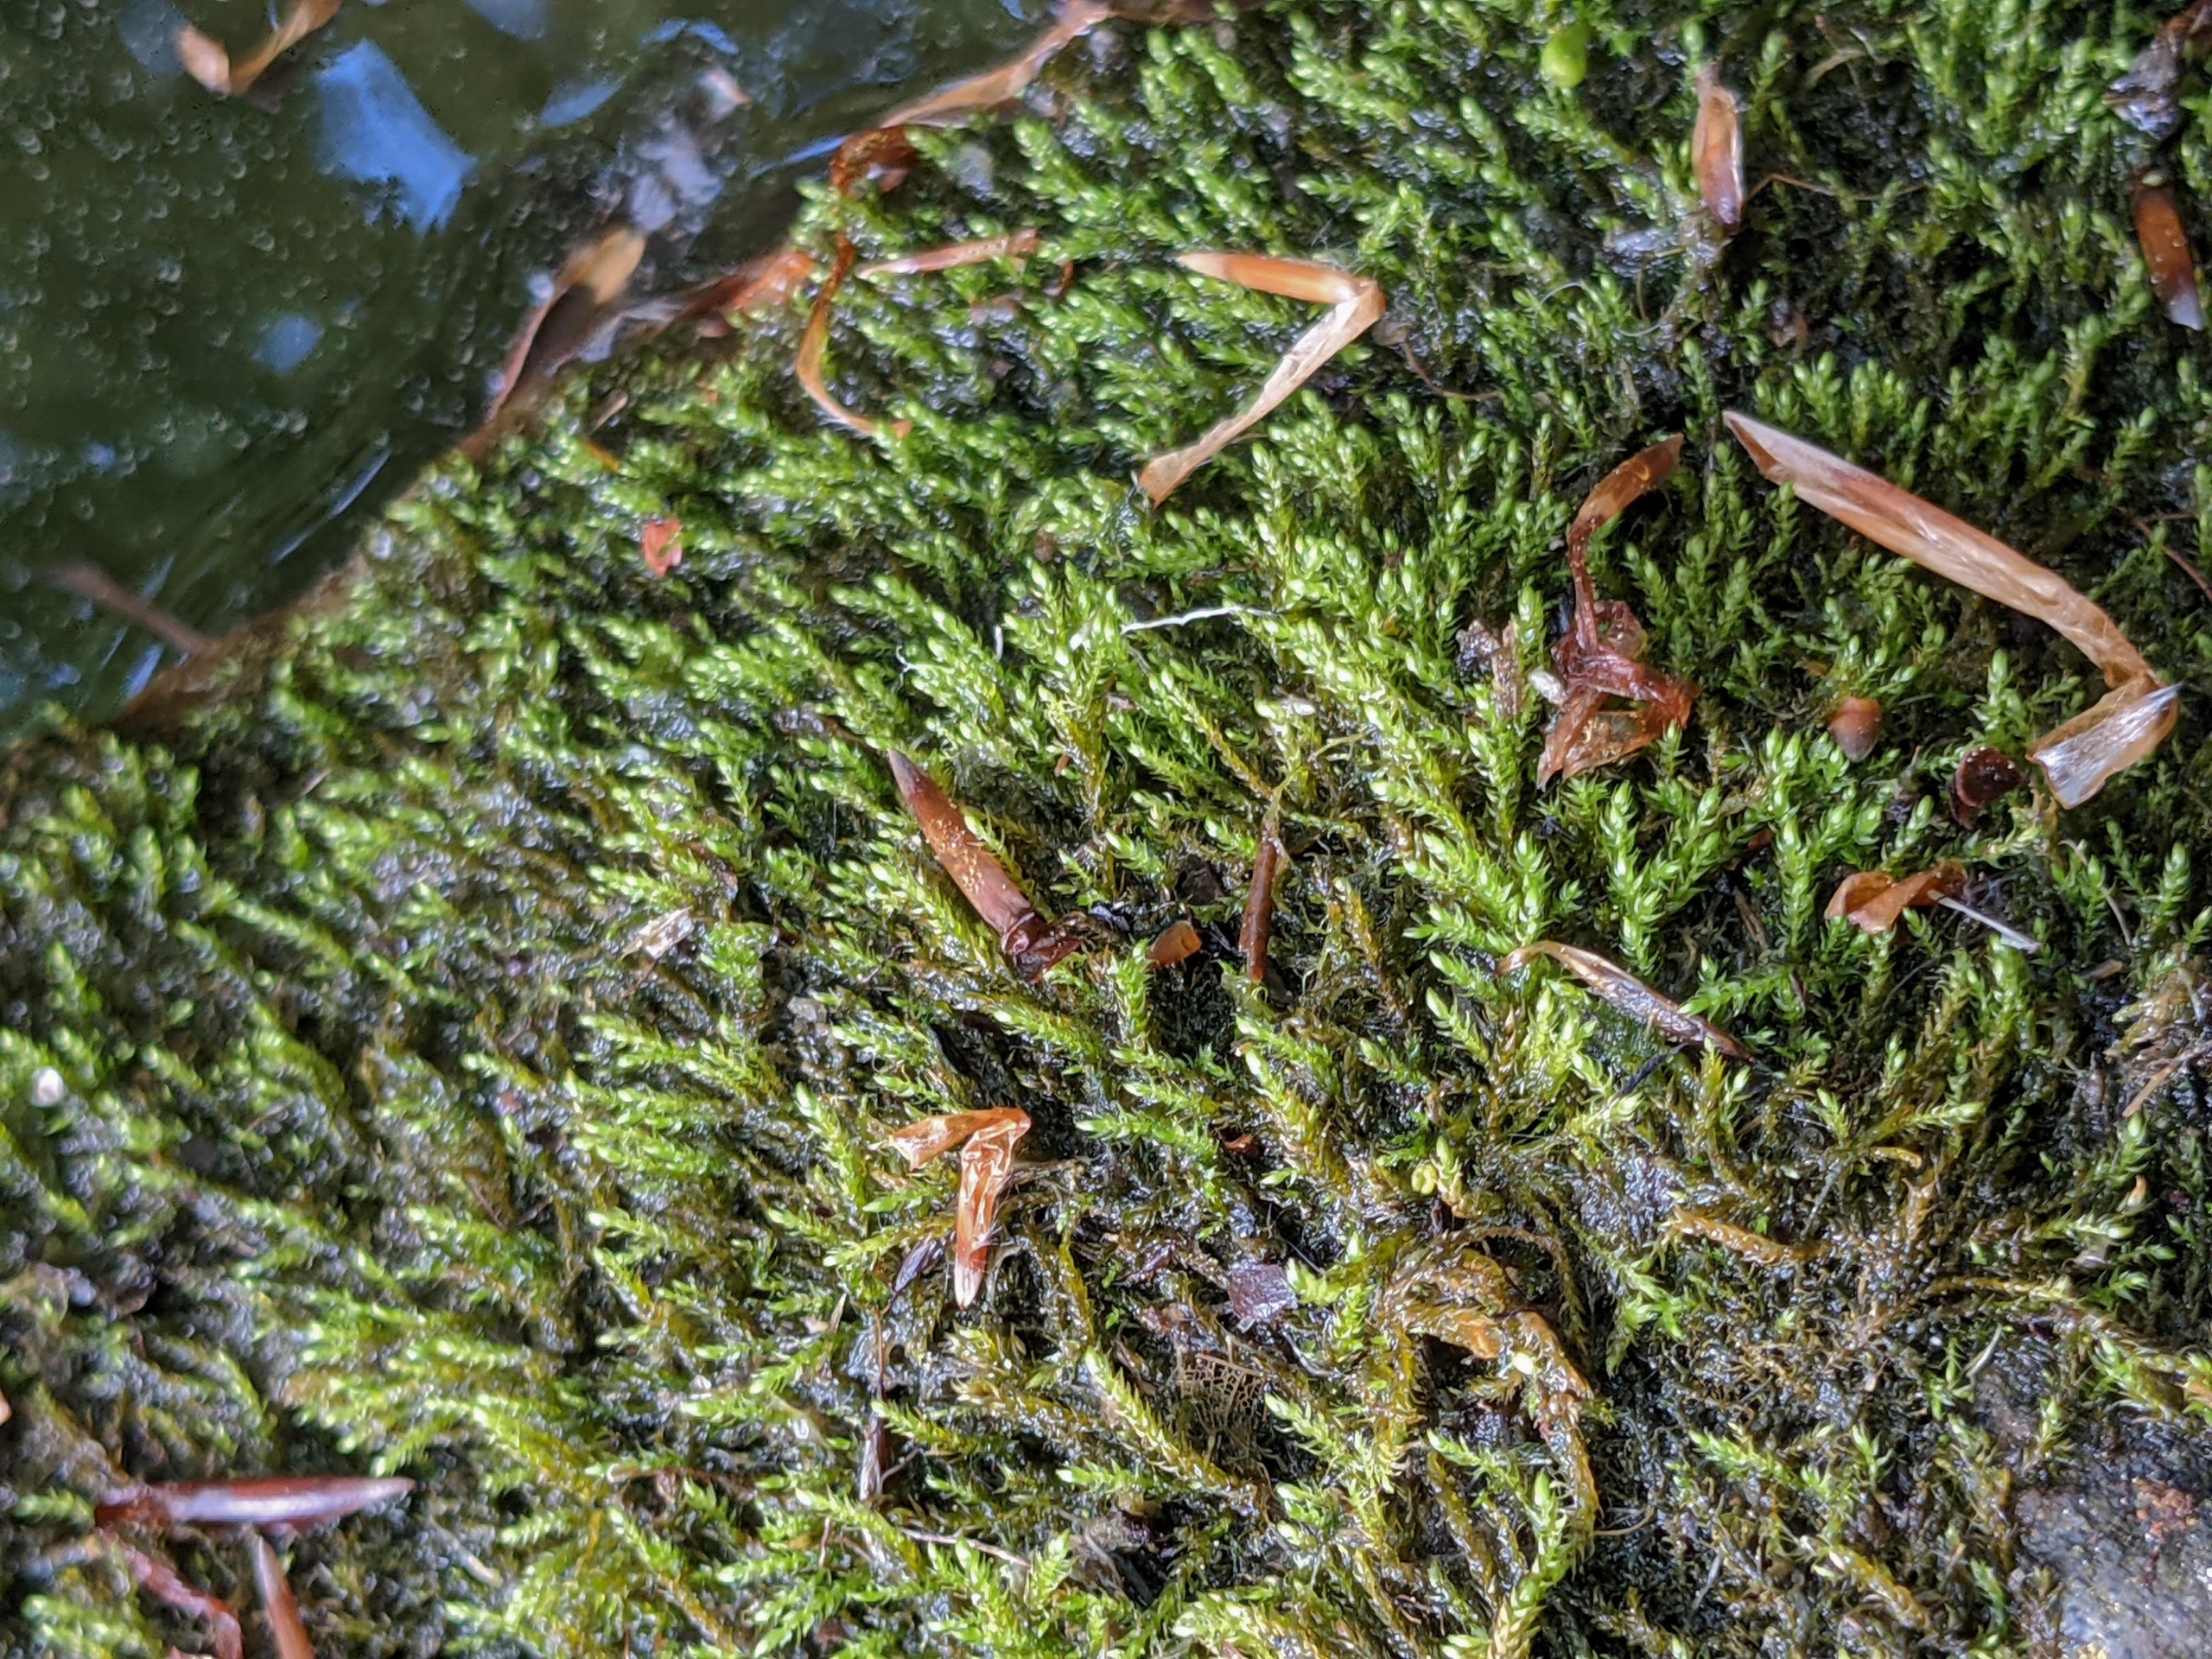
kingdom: Plantae
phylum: Bryophyta
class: Bryopsida
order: Hypnales
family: Amblystegiaceae
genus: Hygroamblystegium
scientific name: Hygroamblystegium tenax
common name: Stiv vandkrybmos
